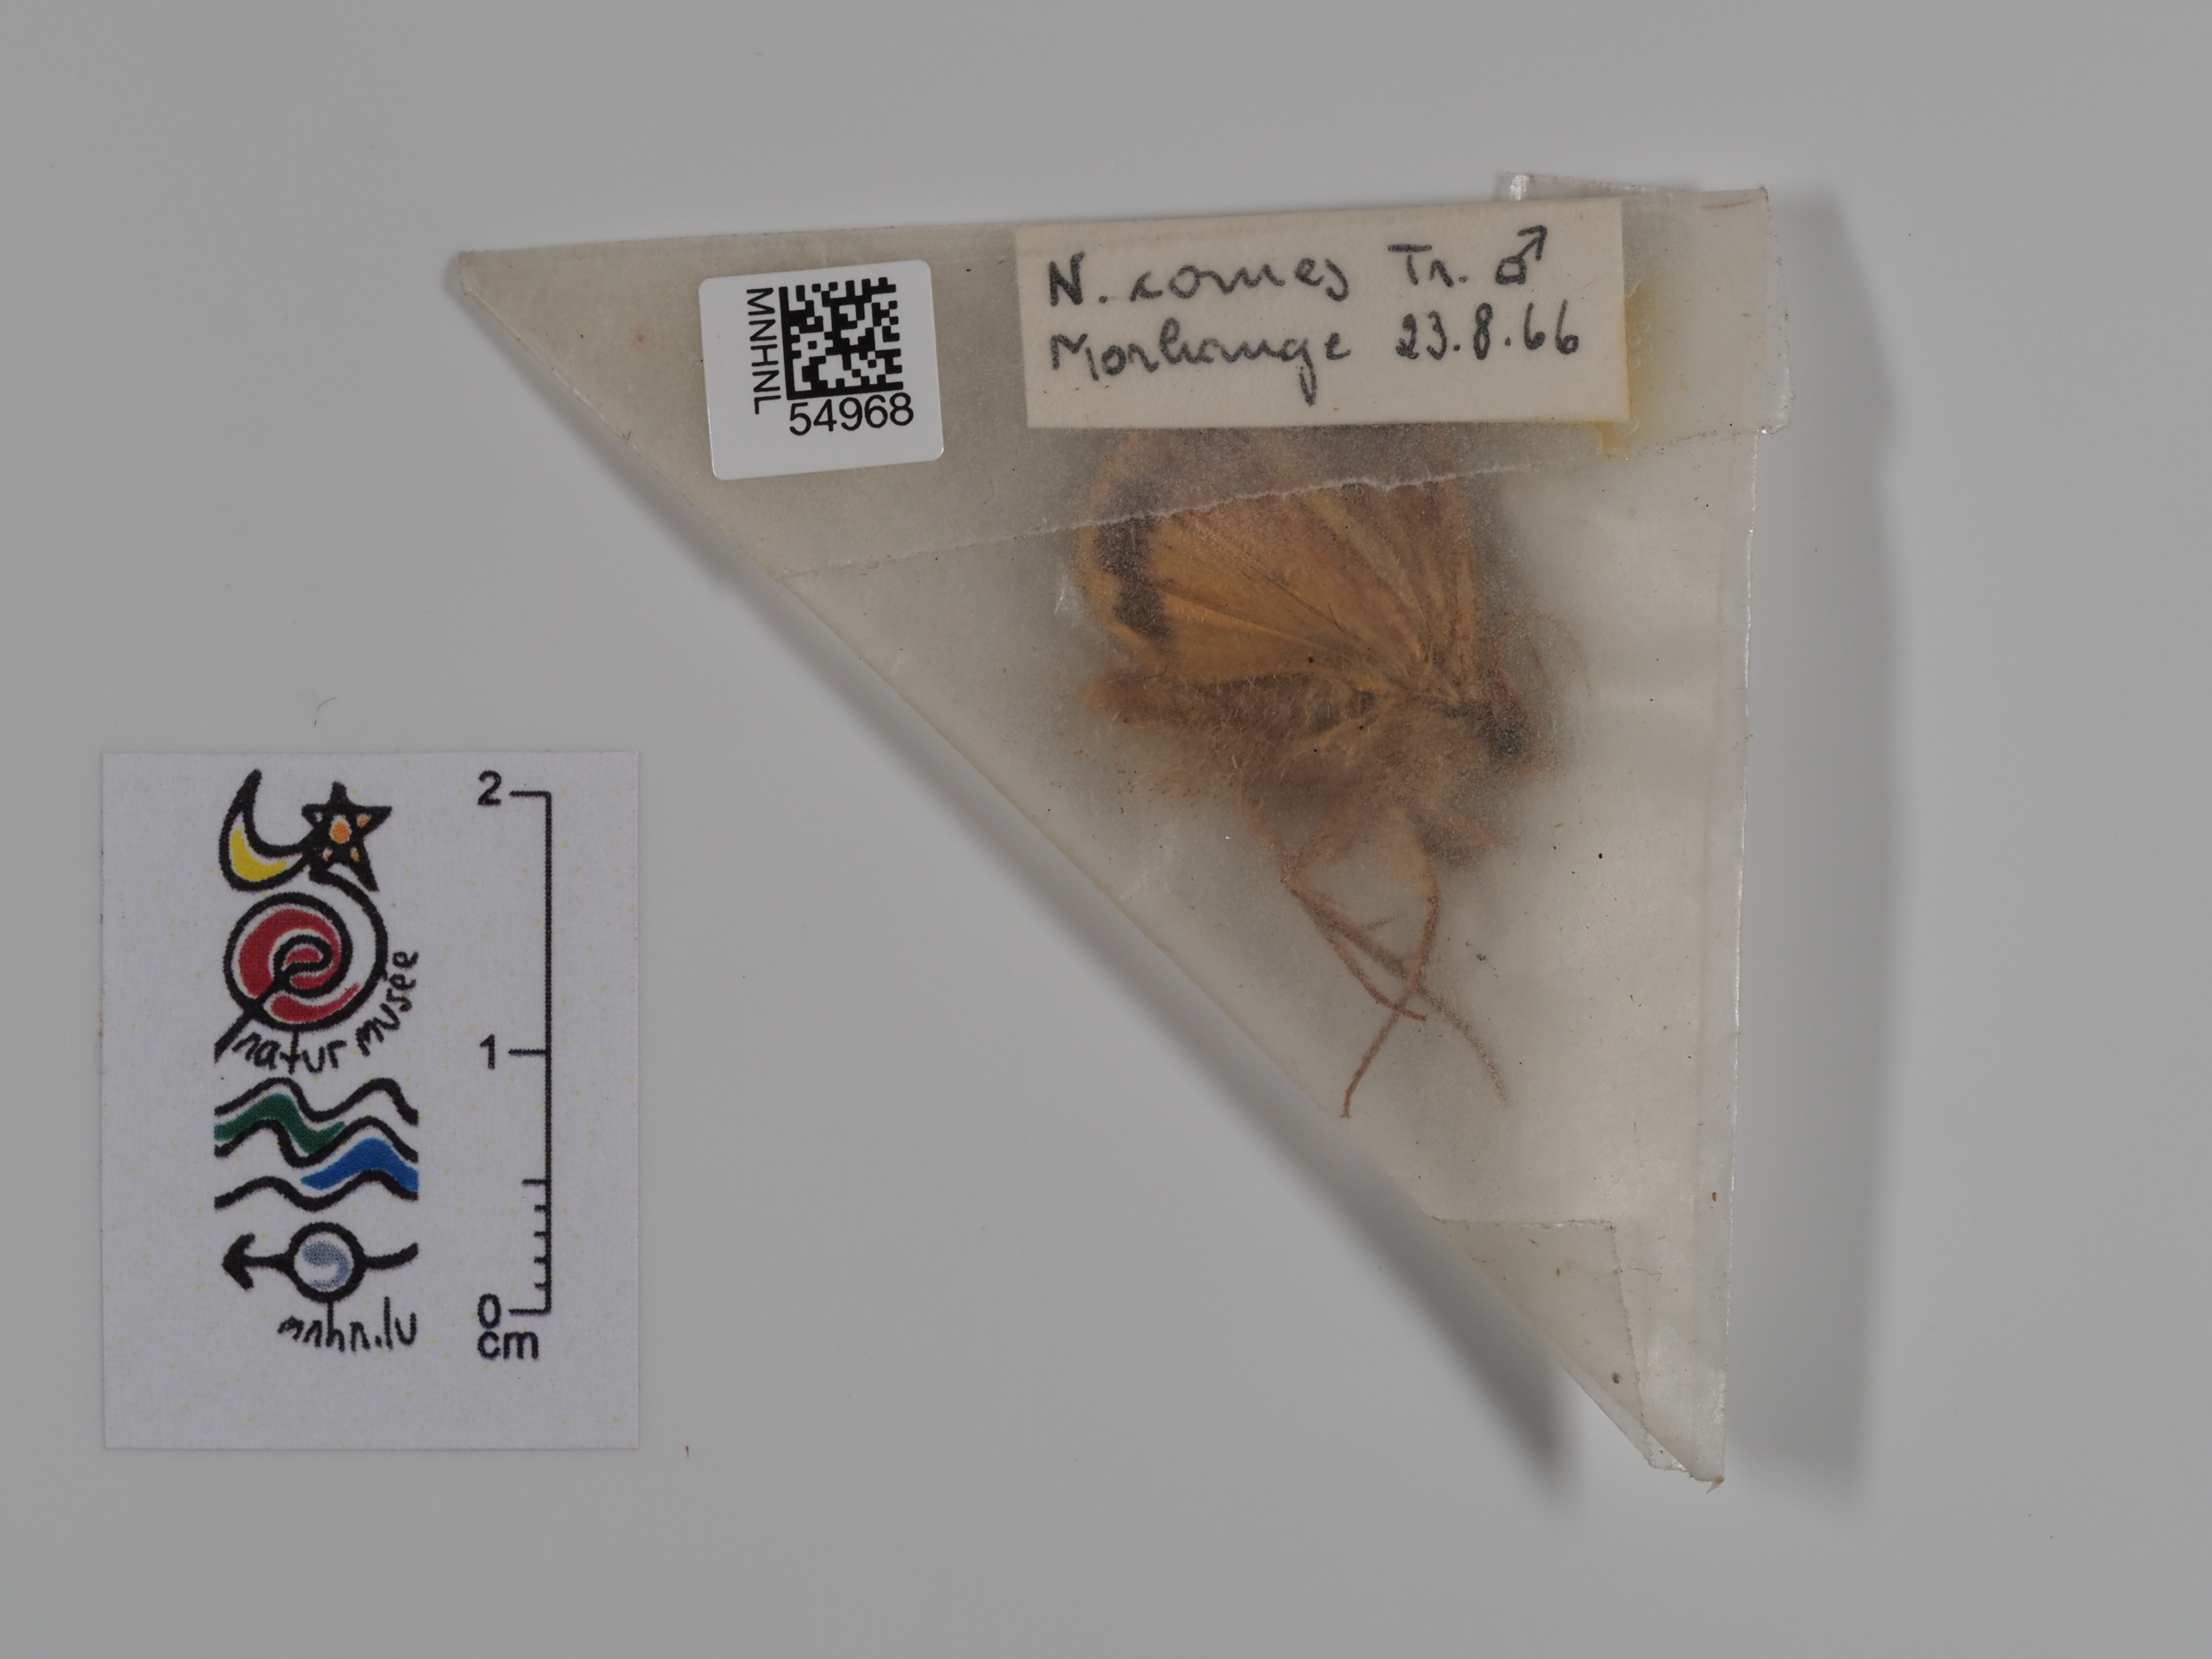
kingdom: Animalia
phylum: Arthropoda
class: Insecta
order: Lepidoptera
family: Noctuidae
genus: Noctua
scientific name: Noctua comes
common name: Lesser yellow underwing
